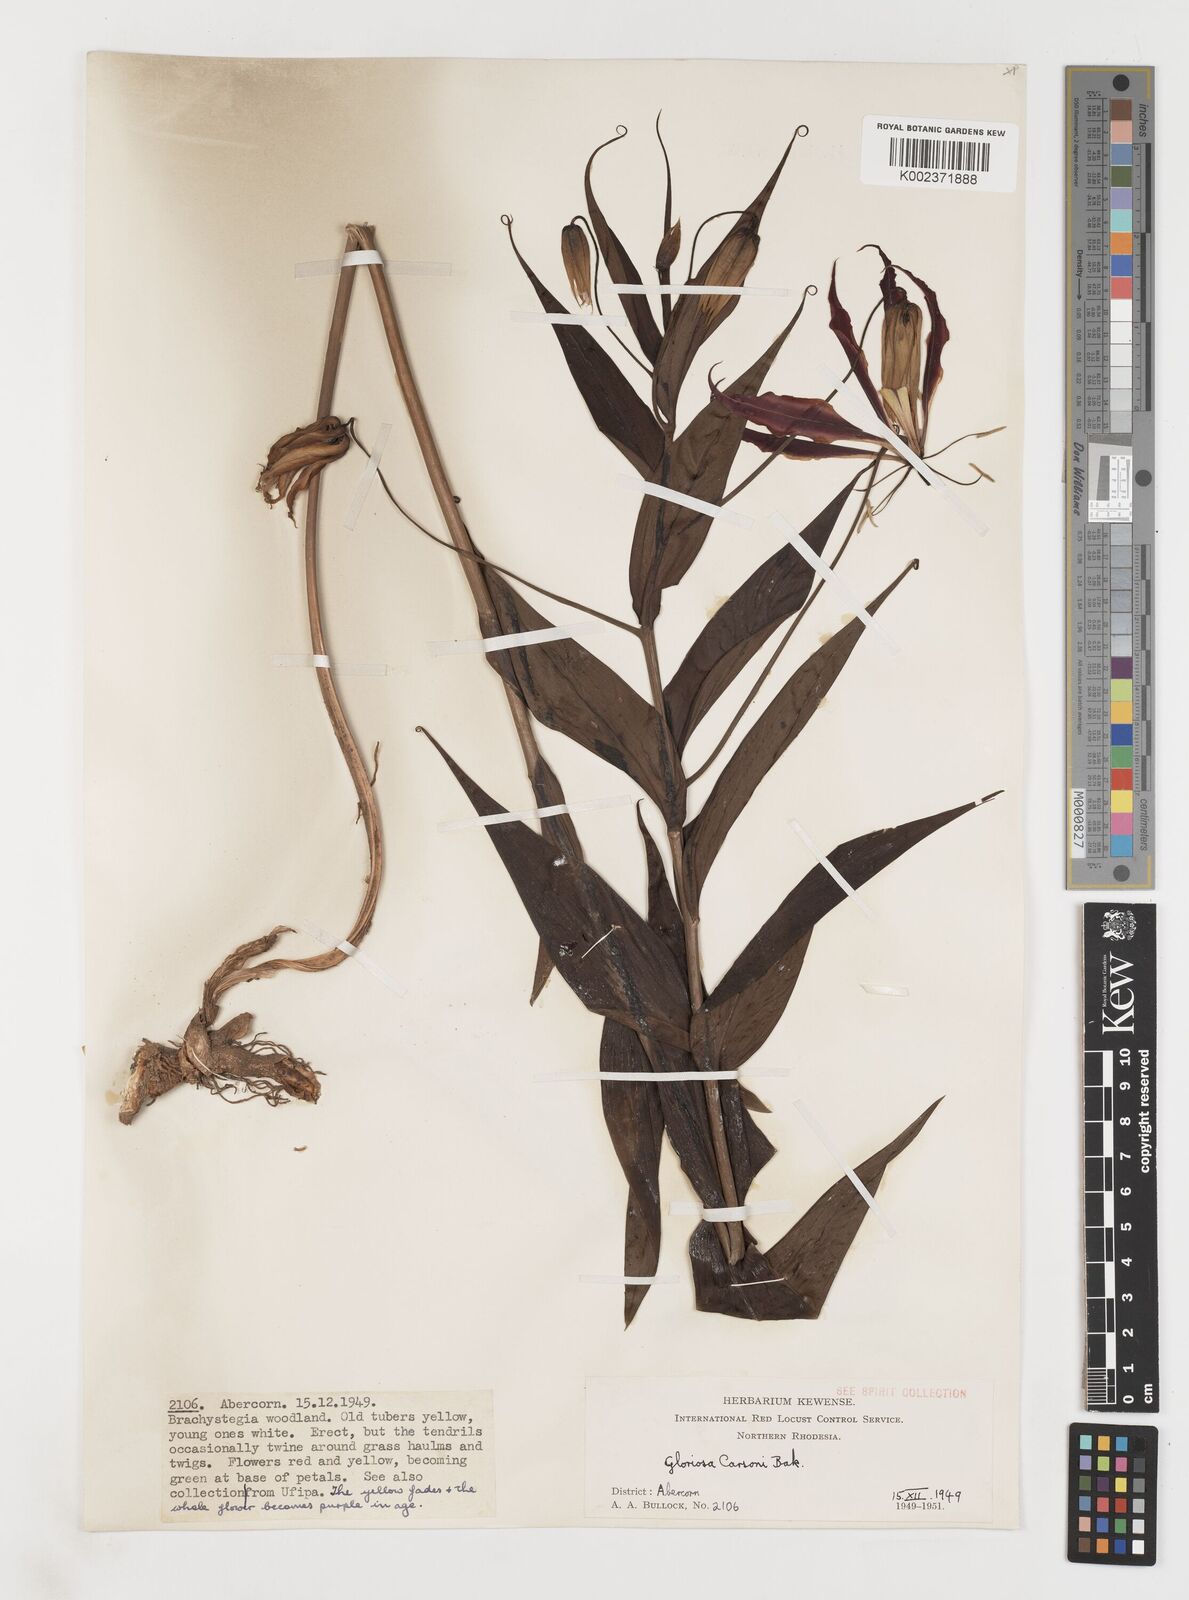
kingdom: Plantae
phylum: Tracheophyta
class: Liliopsida
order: Liliales
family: Colchicaceae
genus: Gloriosa
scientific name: Gloriosa simplex
